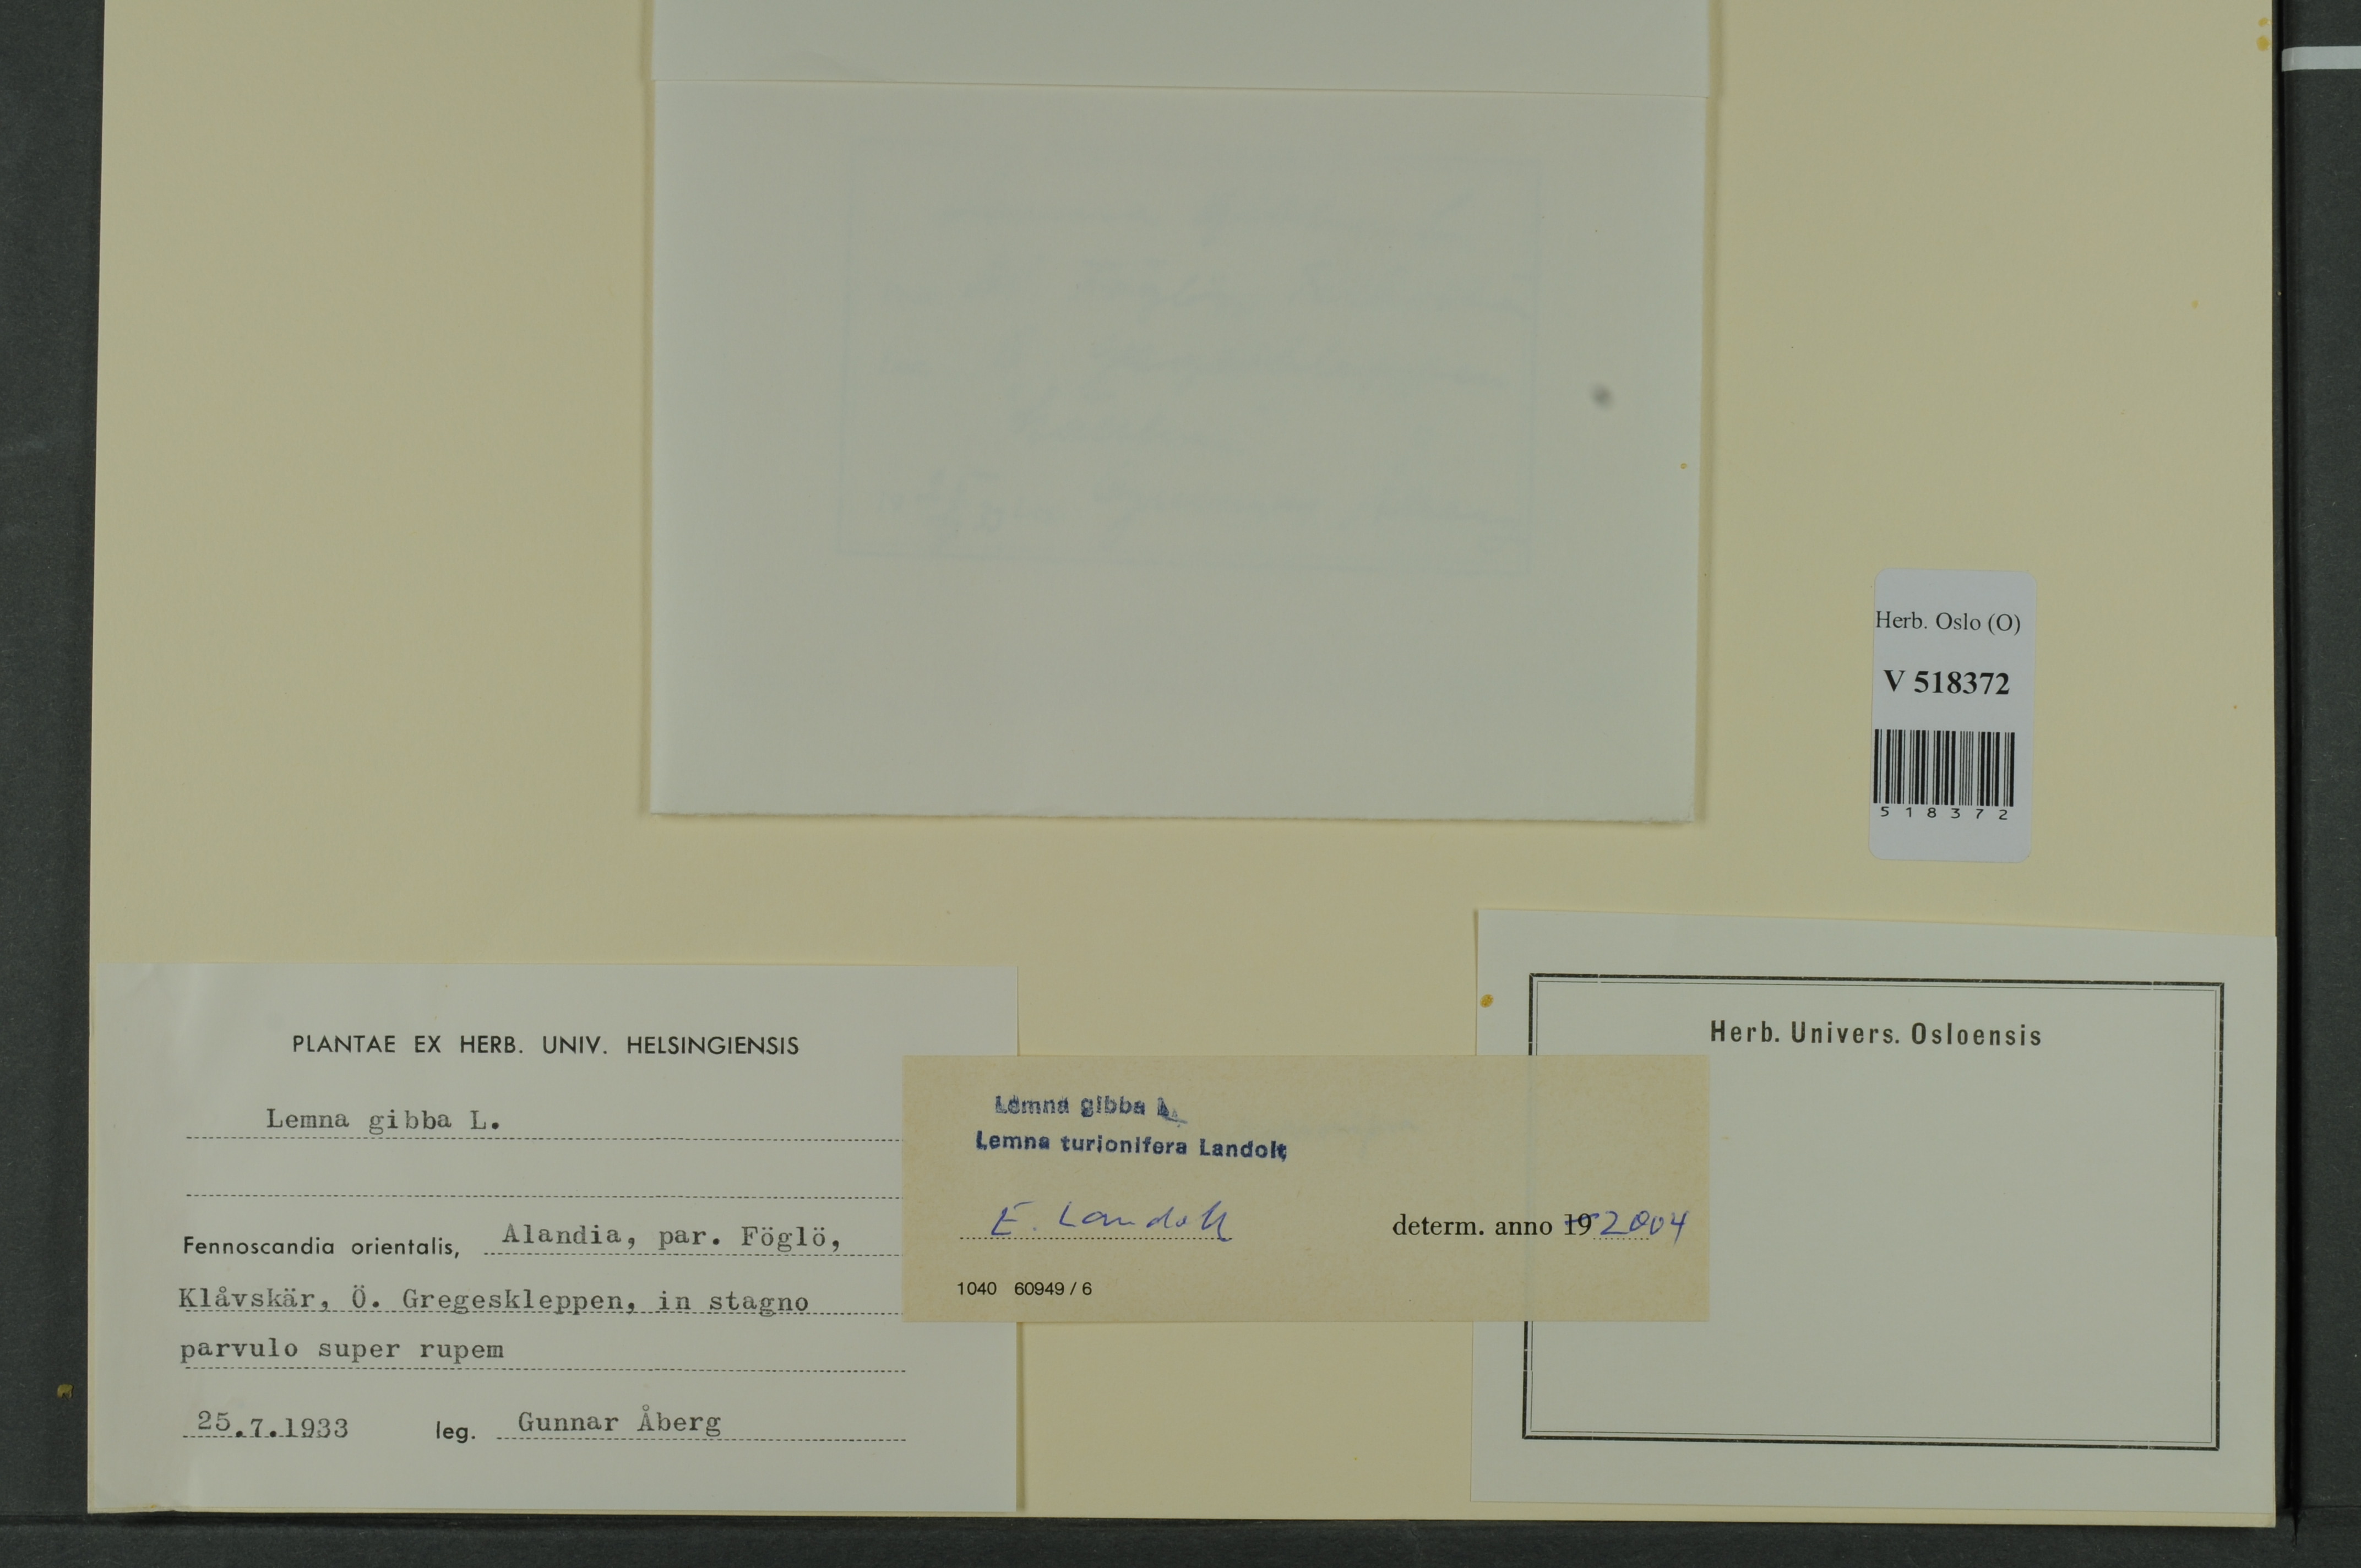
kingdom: Plantae
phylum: Tracheophyta
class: Liliopsida
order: Alismatales
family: Araceae
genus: Lemna
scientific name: Lemna turionifera
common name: Perennial duckweed
